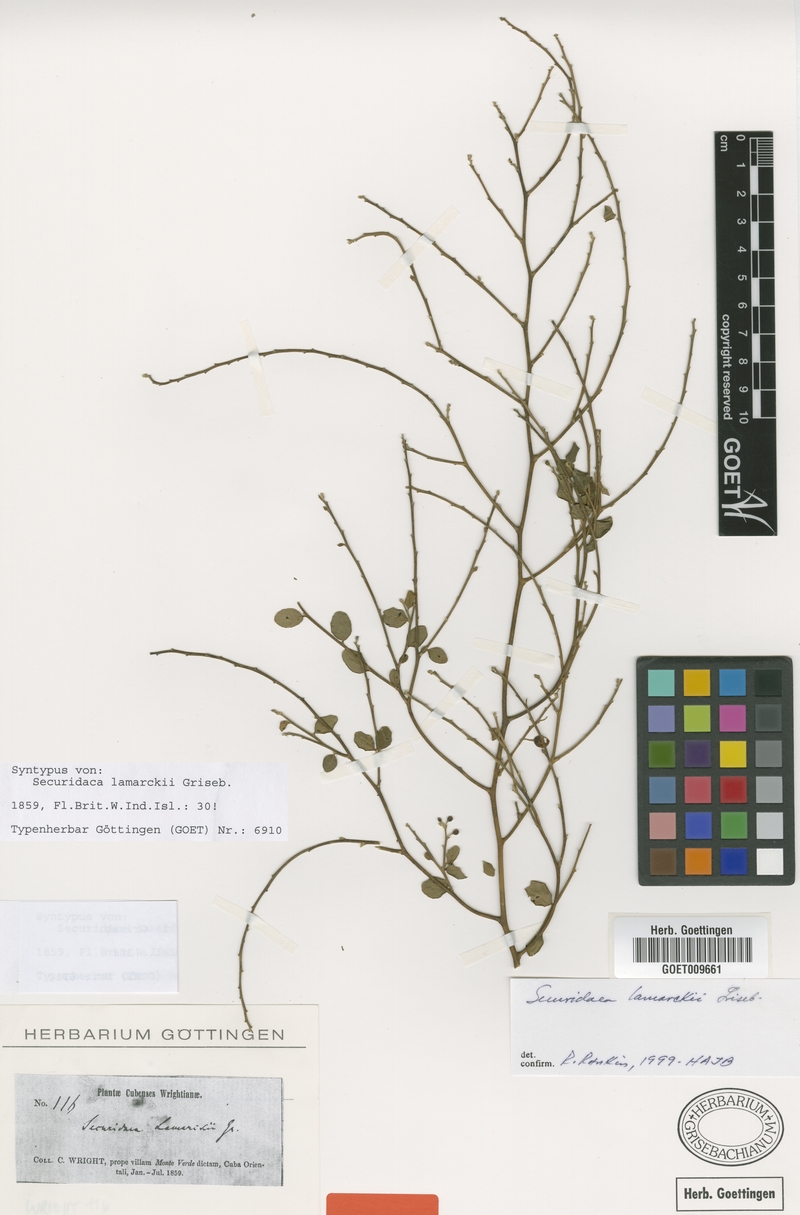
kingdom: Plantae
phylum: Tracheophyta
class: Magnoliopsida
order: Fabales
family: Polygalaceae
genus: Securidaca
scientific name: Securidaca diversifolia
